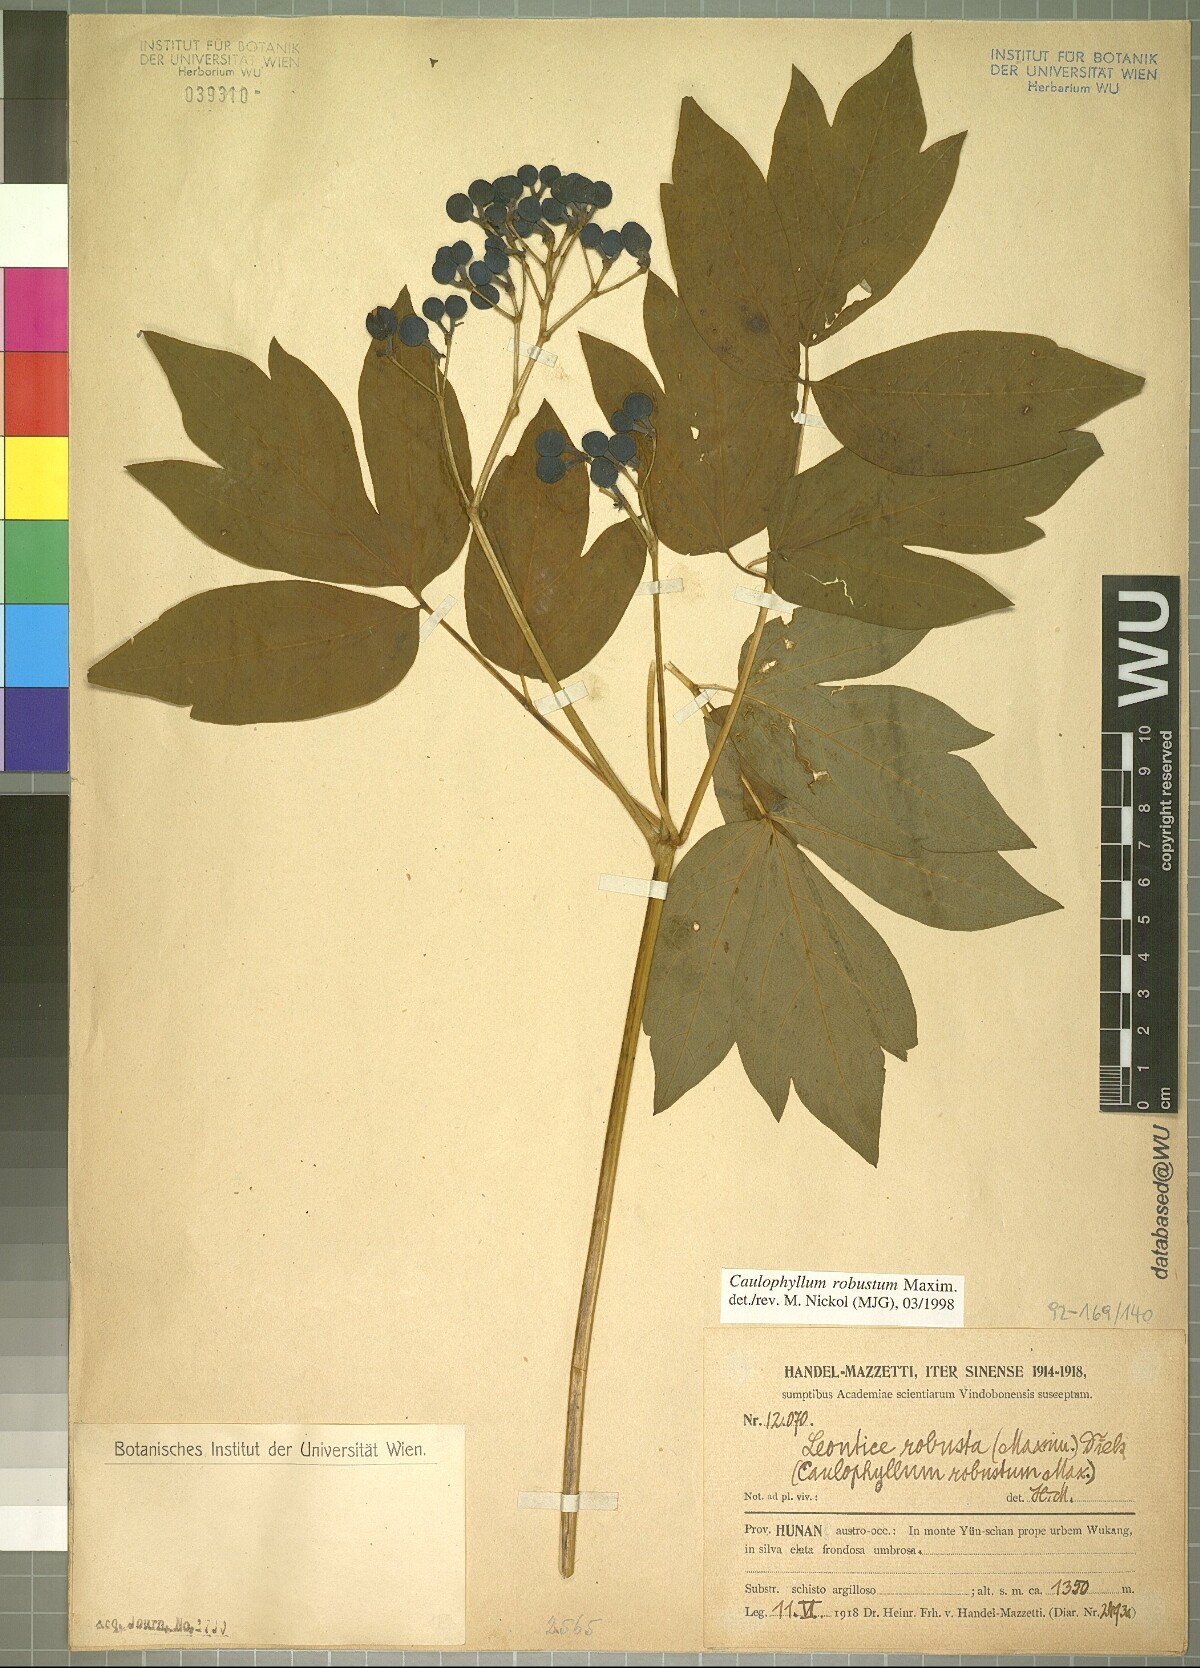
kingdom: Plantae
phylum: Tracheophyta
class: Magnoliopsida
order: Ranunculales
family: Berberidaceae
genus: Caulophyllum
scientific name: Caulophyllum robustum
